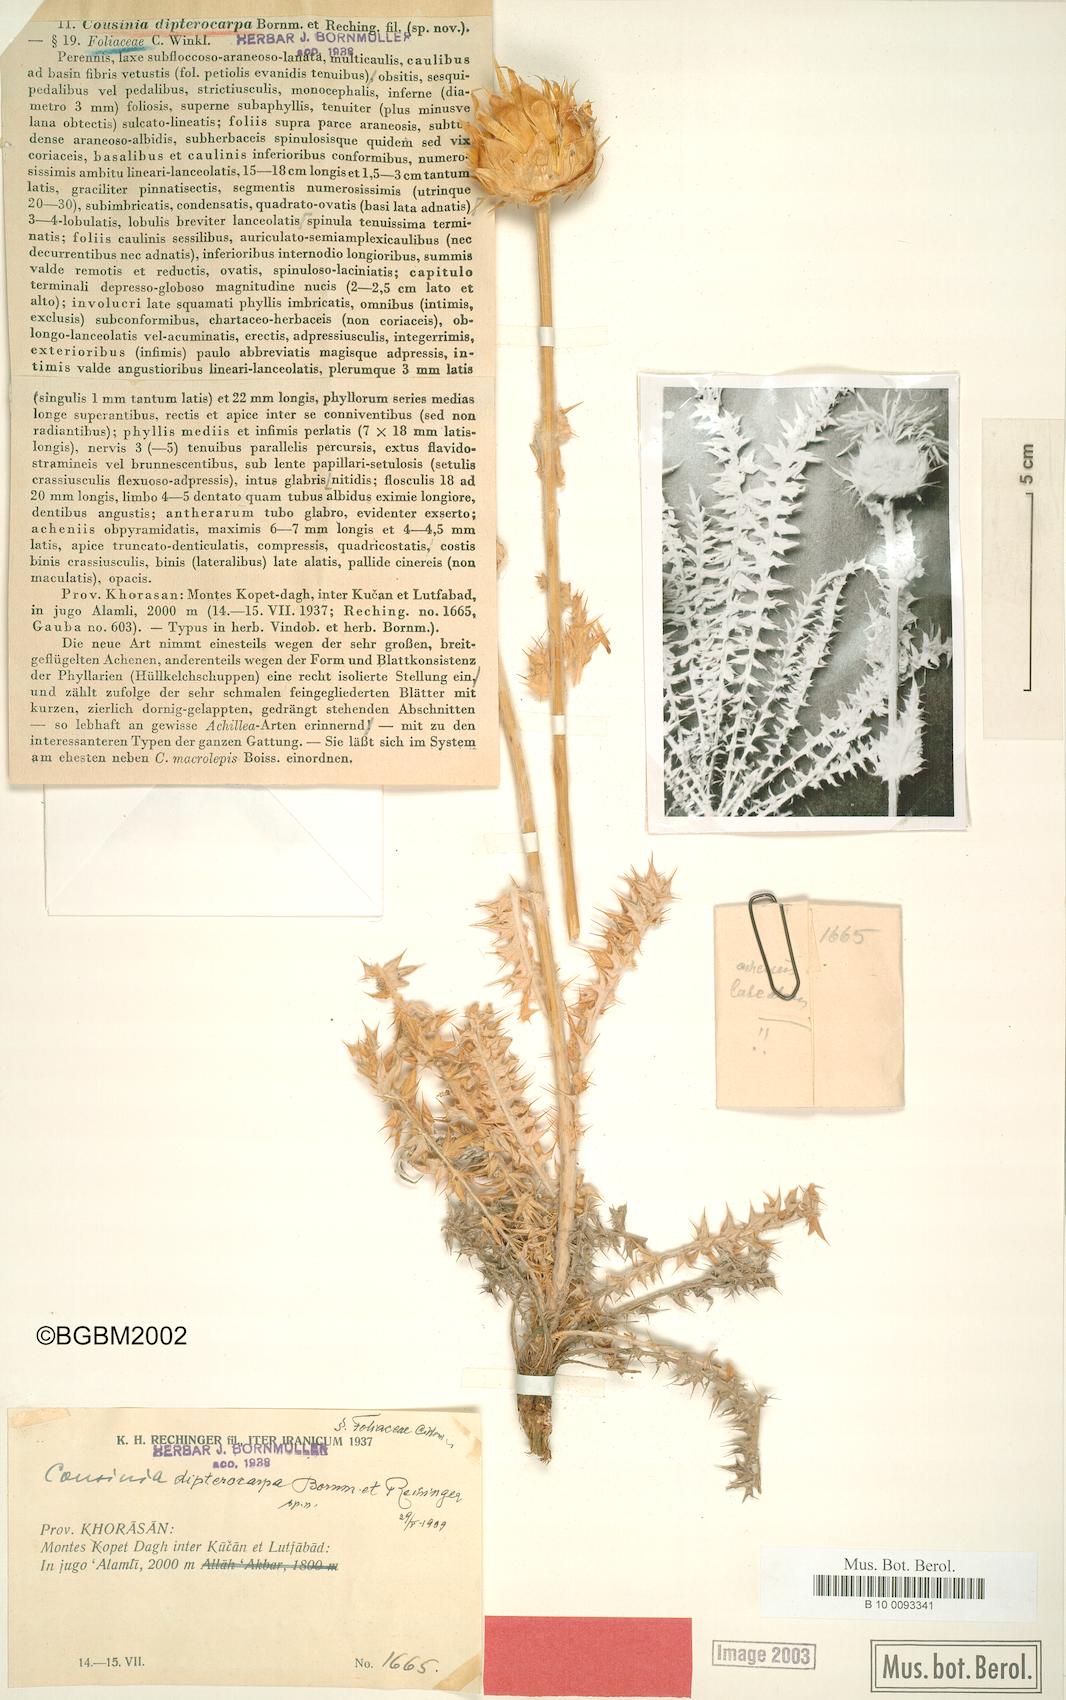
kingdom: Plantae
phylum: Tracheophyta
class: Magnoliopsida
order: Asterales
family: Asteraceae
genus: Cousinia
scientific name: Cousinia dipterocarpa
